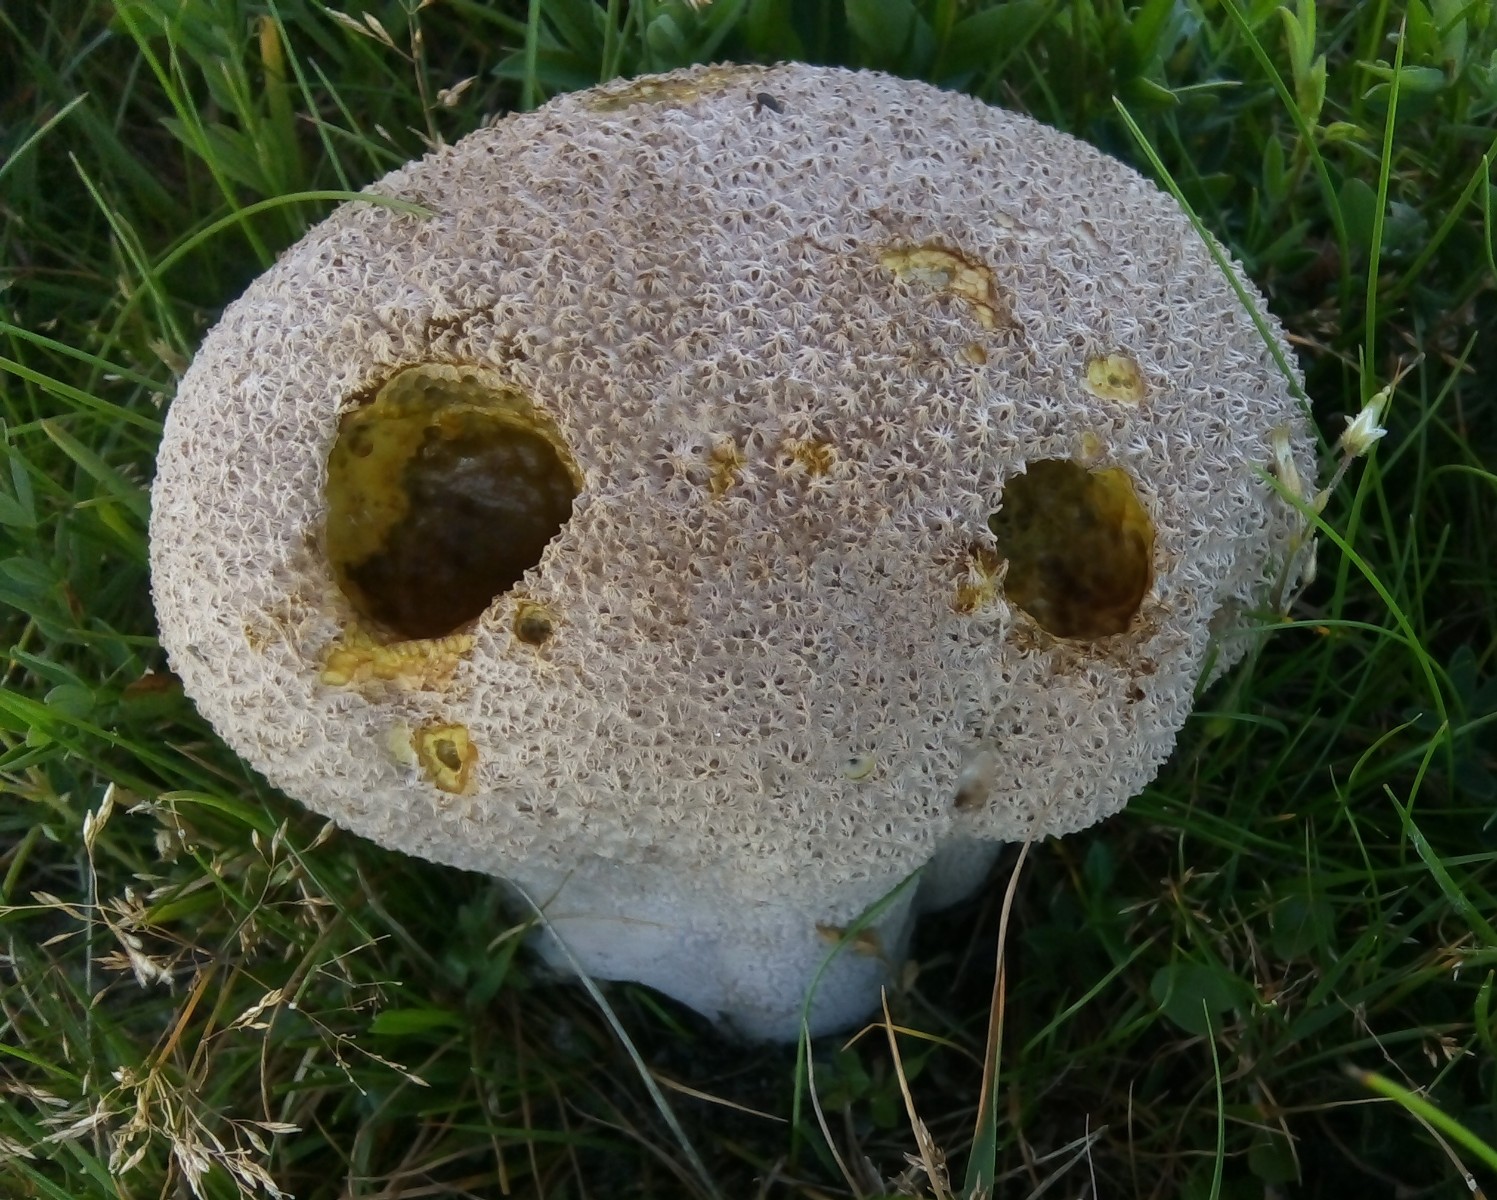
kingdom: Fungi
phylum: Basidiomycota
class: Agaricomycetes
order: Agaricales
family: Lycoperdaceae
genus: Bovistella
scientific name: Bovistella utriformis
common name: skællet støvbold
